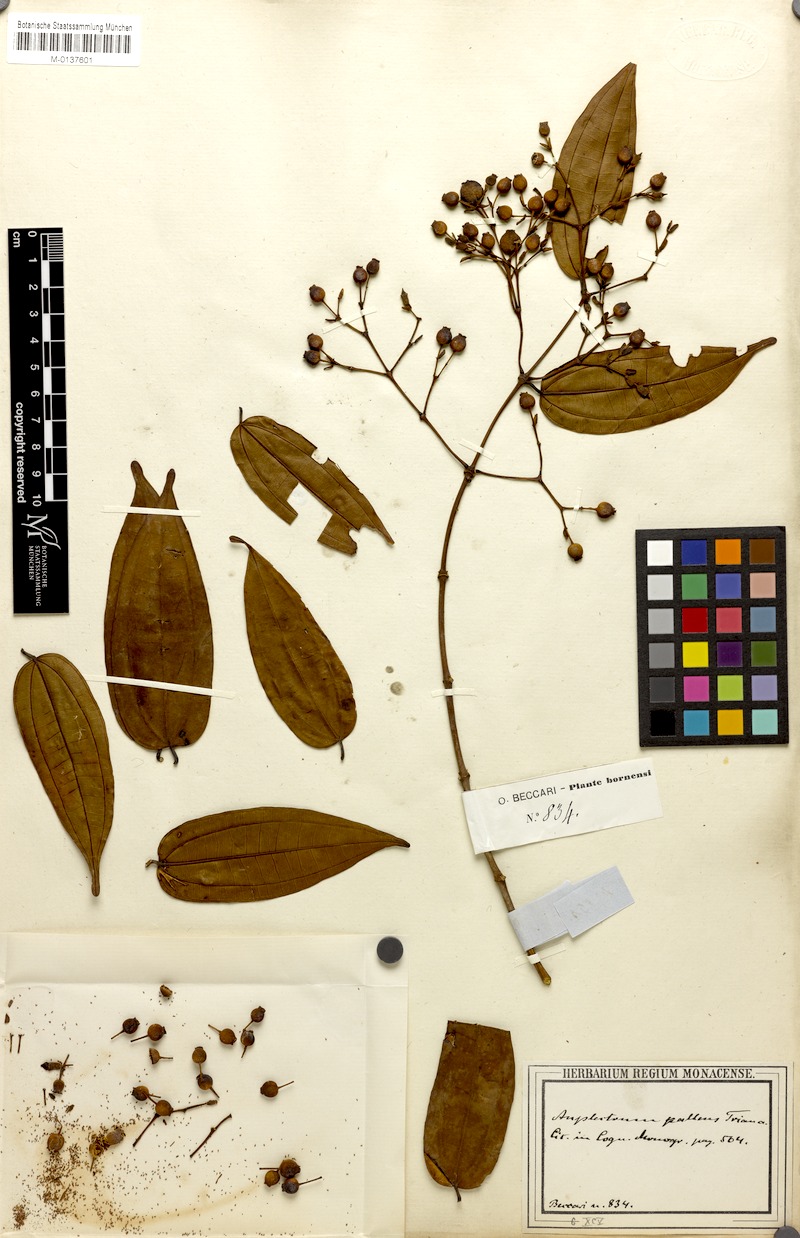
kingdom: Plantae
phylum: Tracheophyta
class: Magnoliopsida
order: Myrtales
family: Melastomataceae
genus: Diplectria
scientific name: Diplectria Anplectrum pallens
